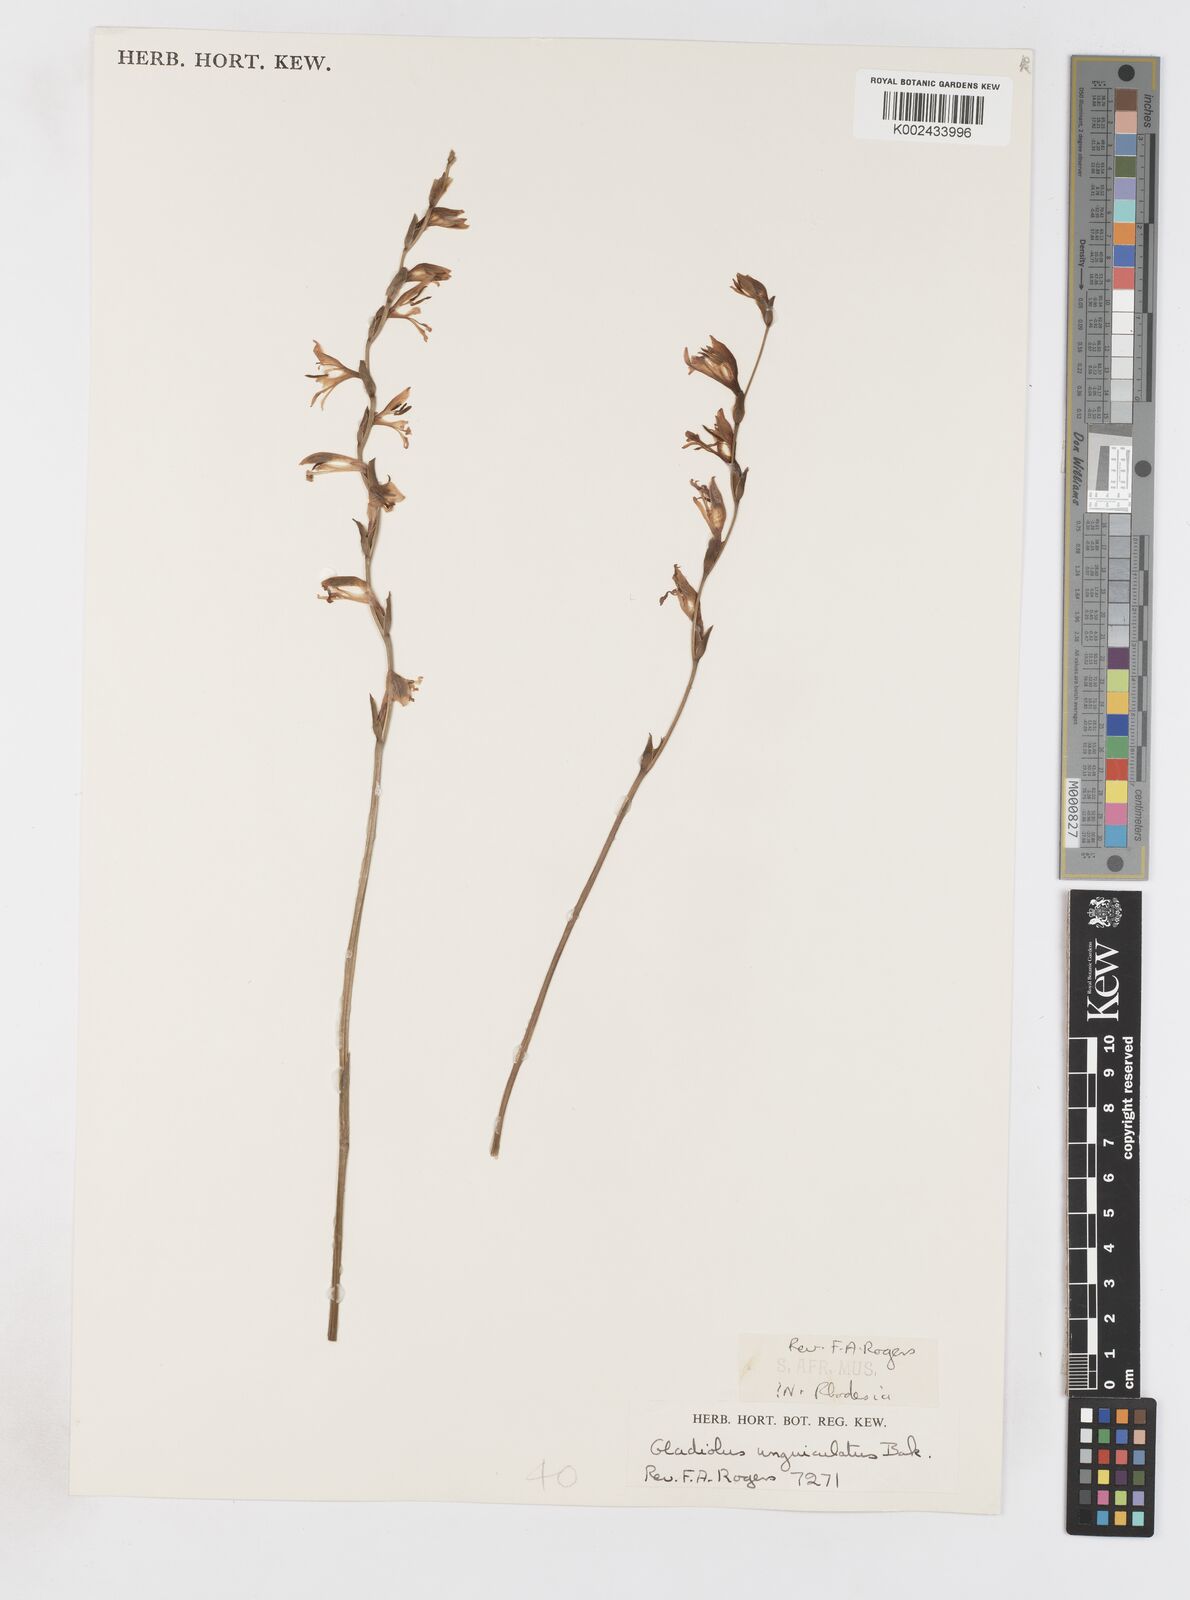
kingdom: Plantae
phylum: Tracheophyta
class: Liliopsida
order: Asparagales
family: Iridaceae
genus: Gladiolus
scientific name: Gladiolus atropurpureus
